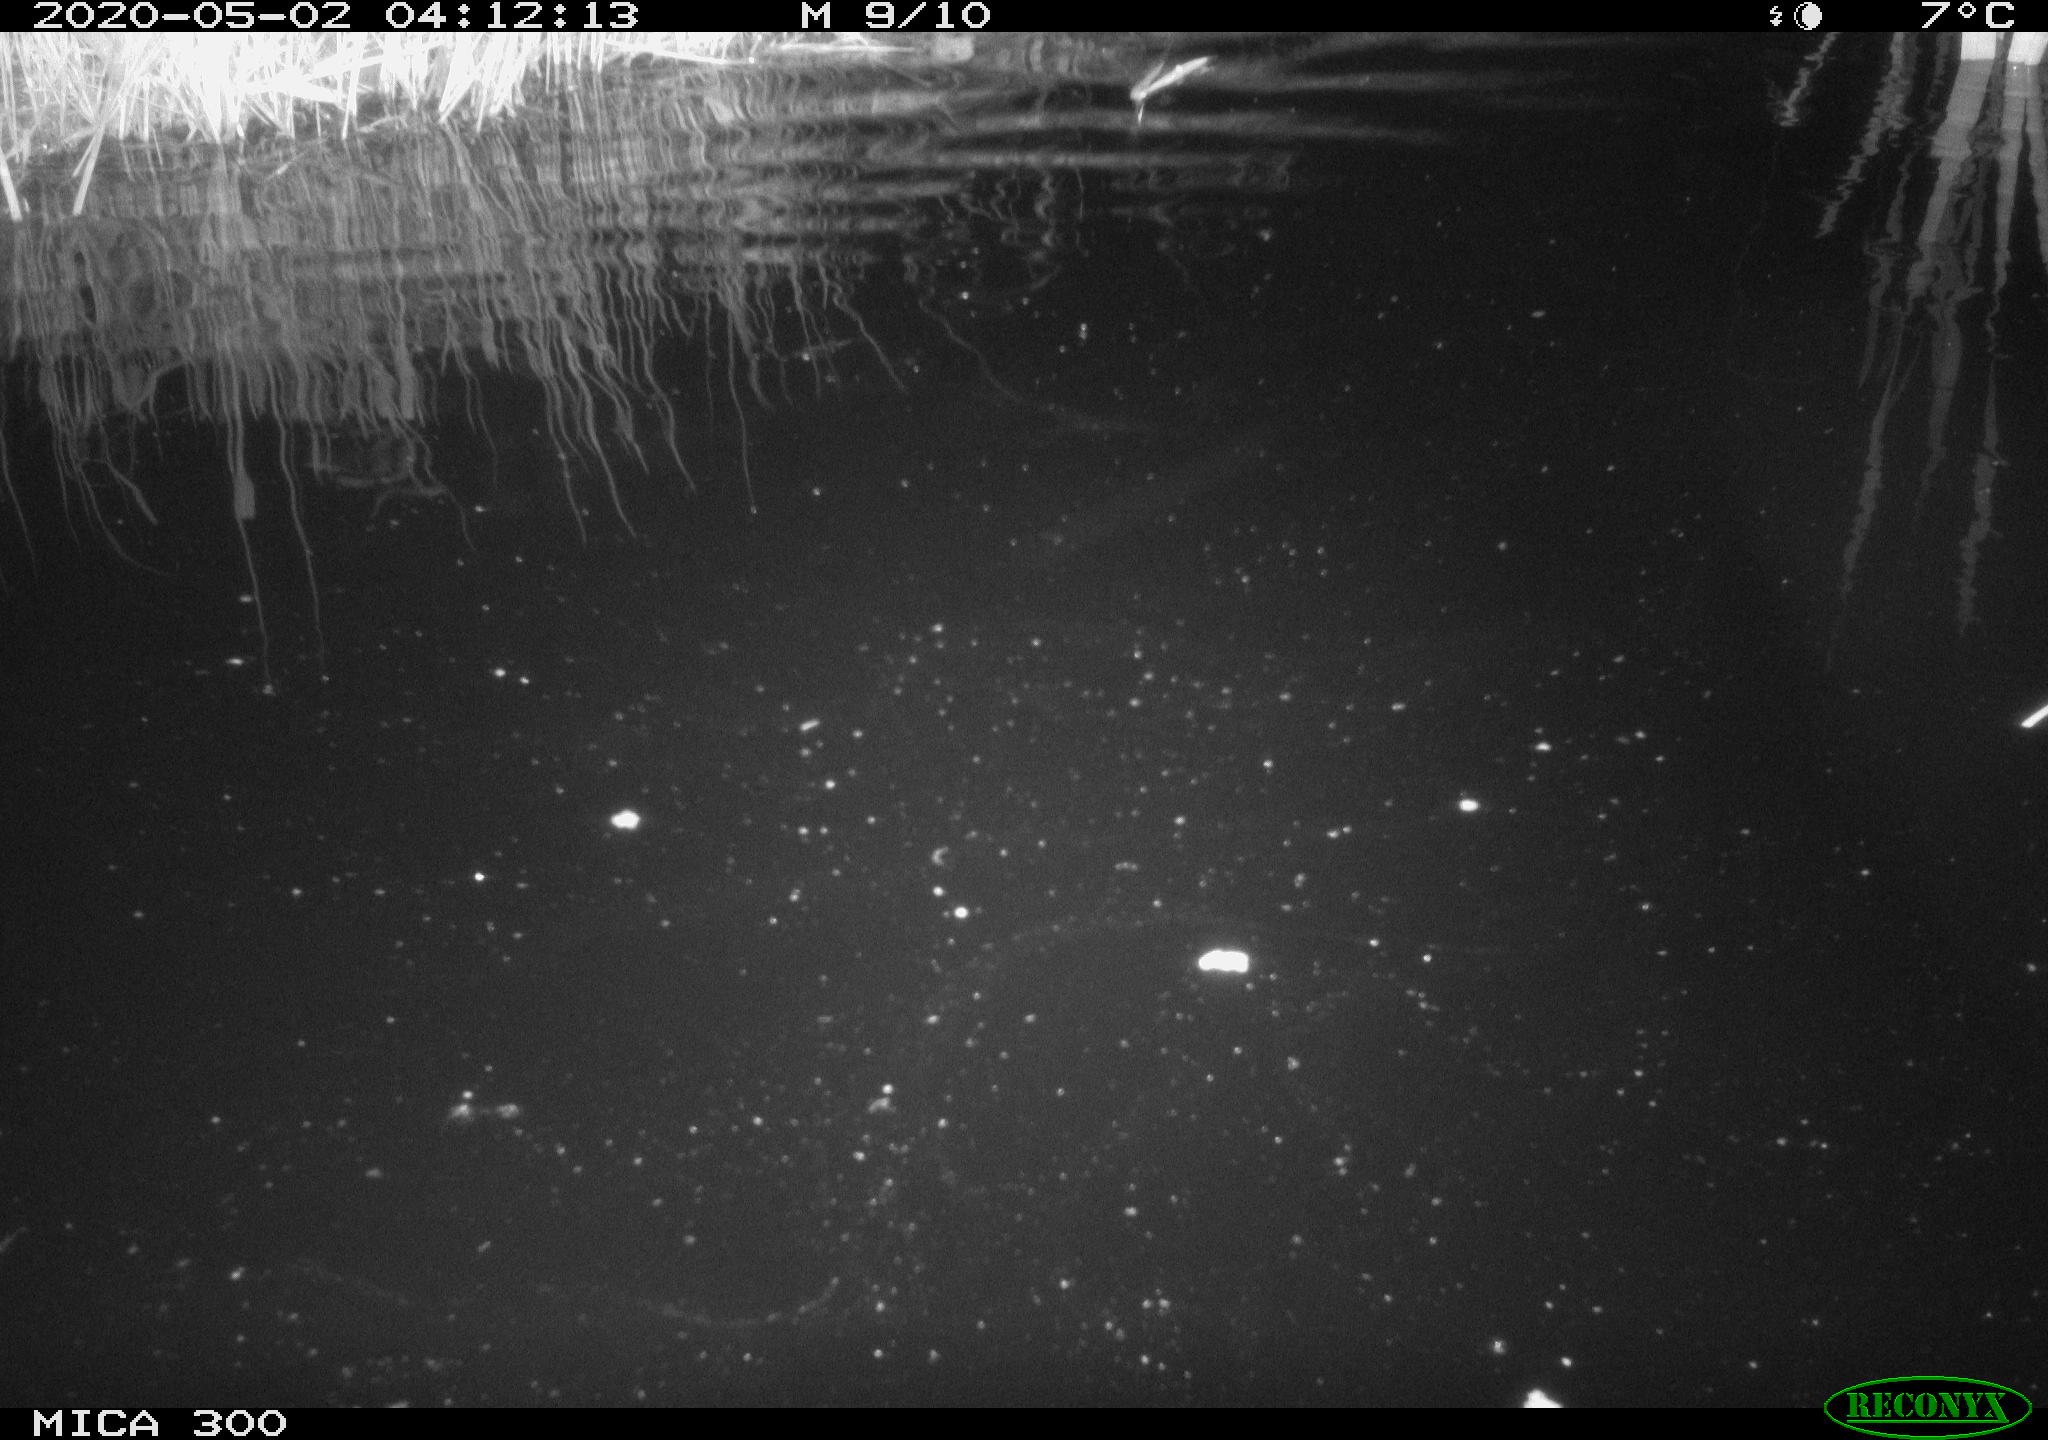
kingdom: Animalia
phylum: Chordata
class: Mammalia
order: Rodentia
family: Castoridae
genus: Castor
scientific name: Castor fiber
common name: Eurasian beaver
